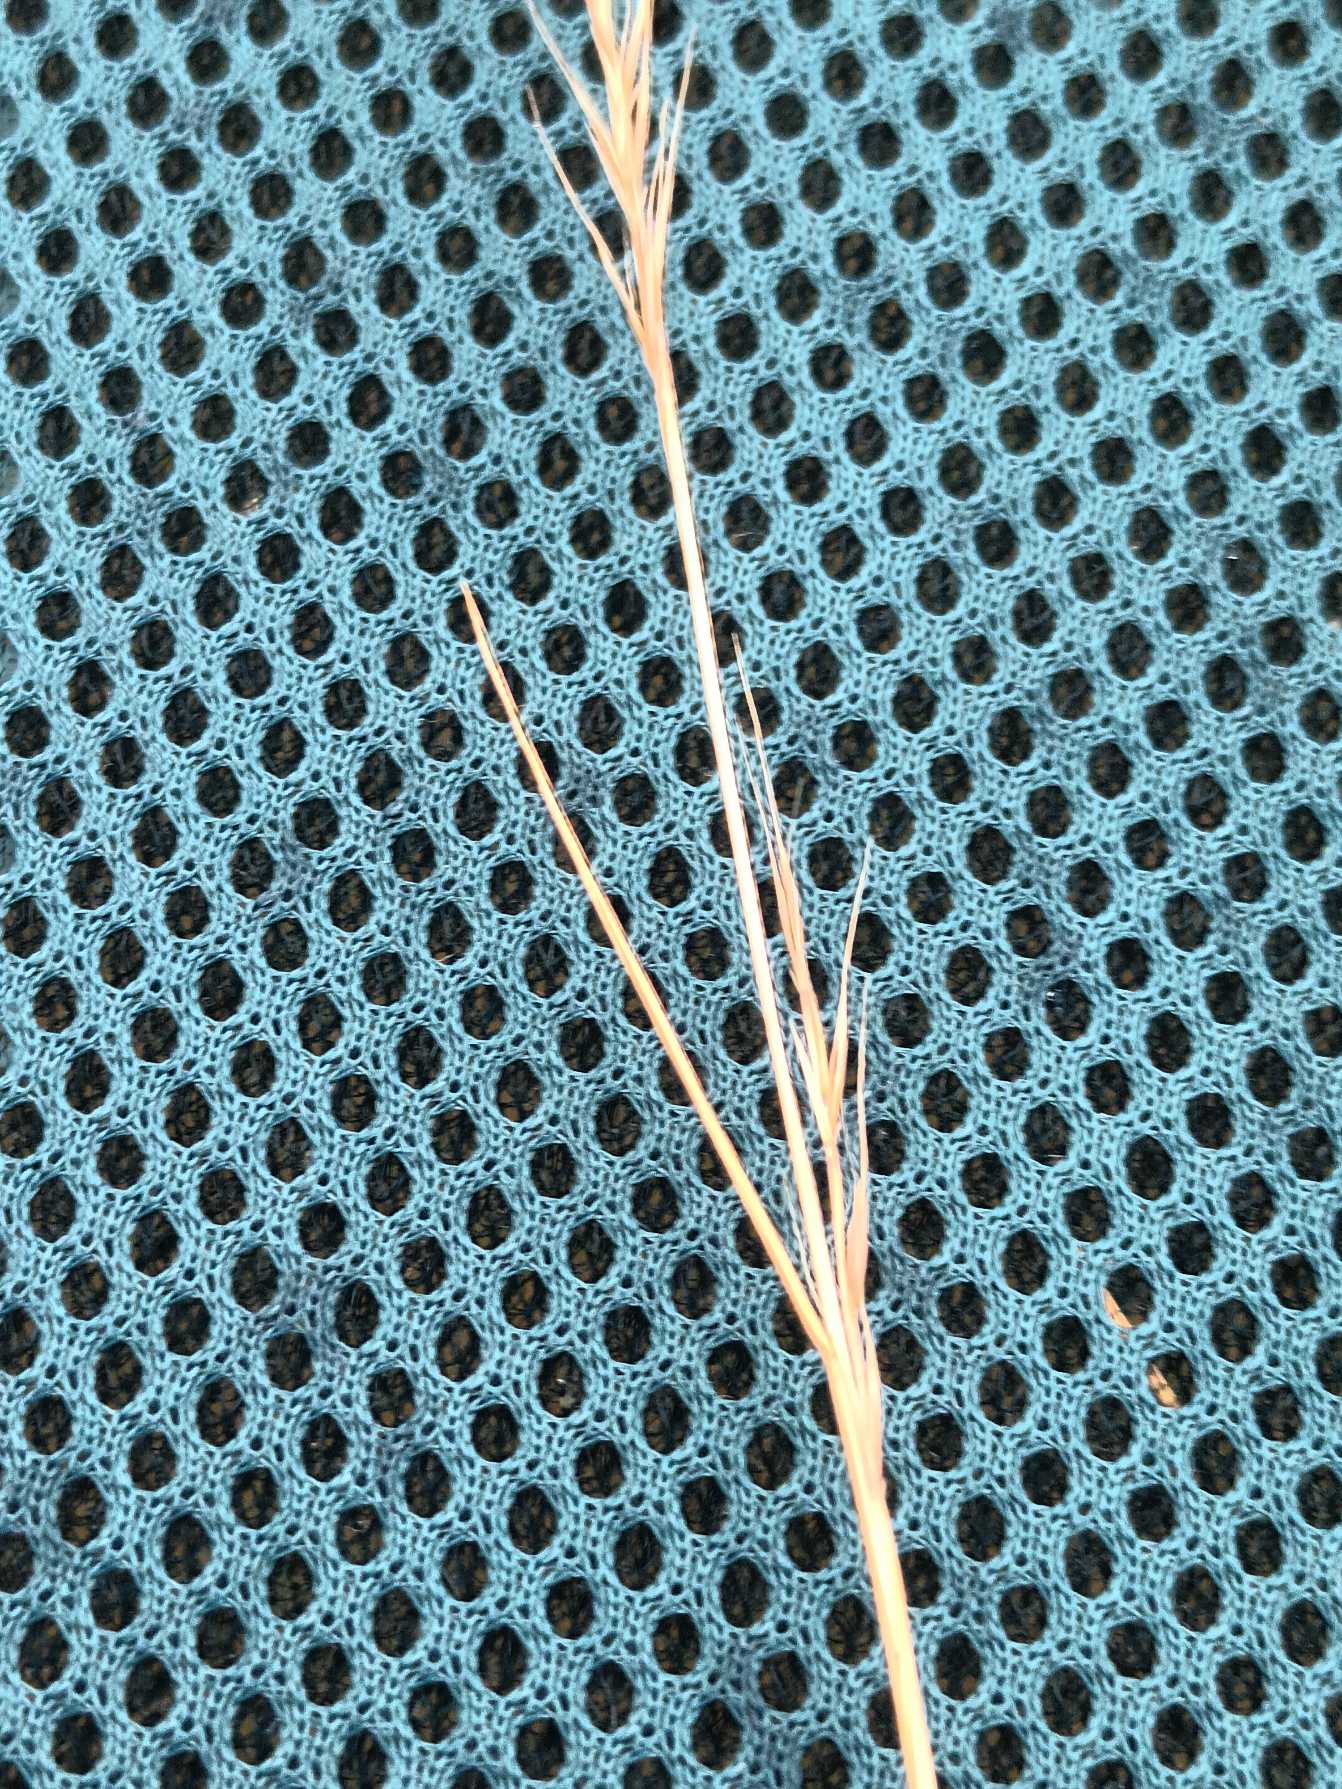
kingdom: Plantae
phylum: Tracheophyta
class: Liliopsida
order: Poales
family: Poaceae
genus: Festuca
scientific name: Festuca myuros
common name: Stor væselhale
